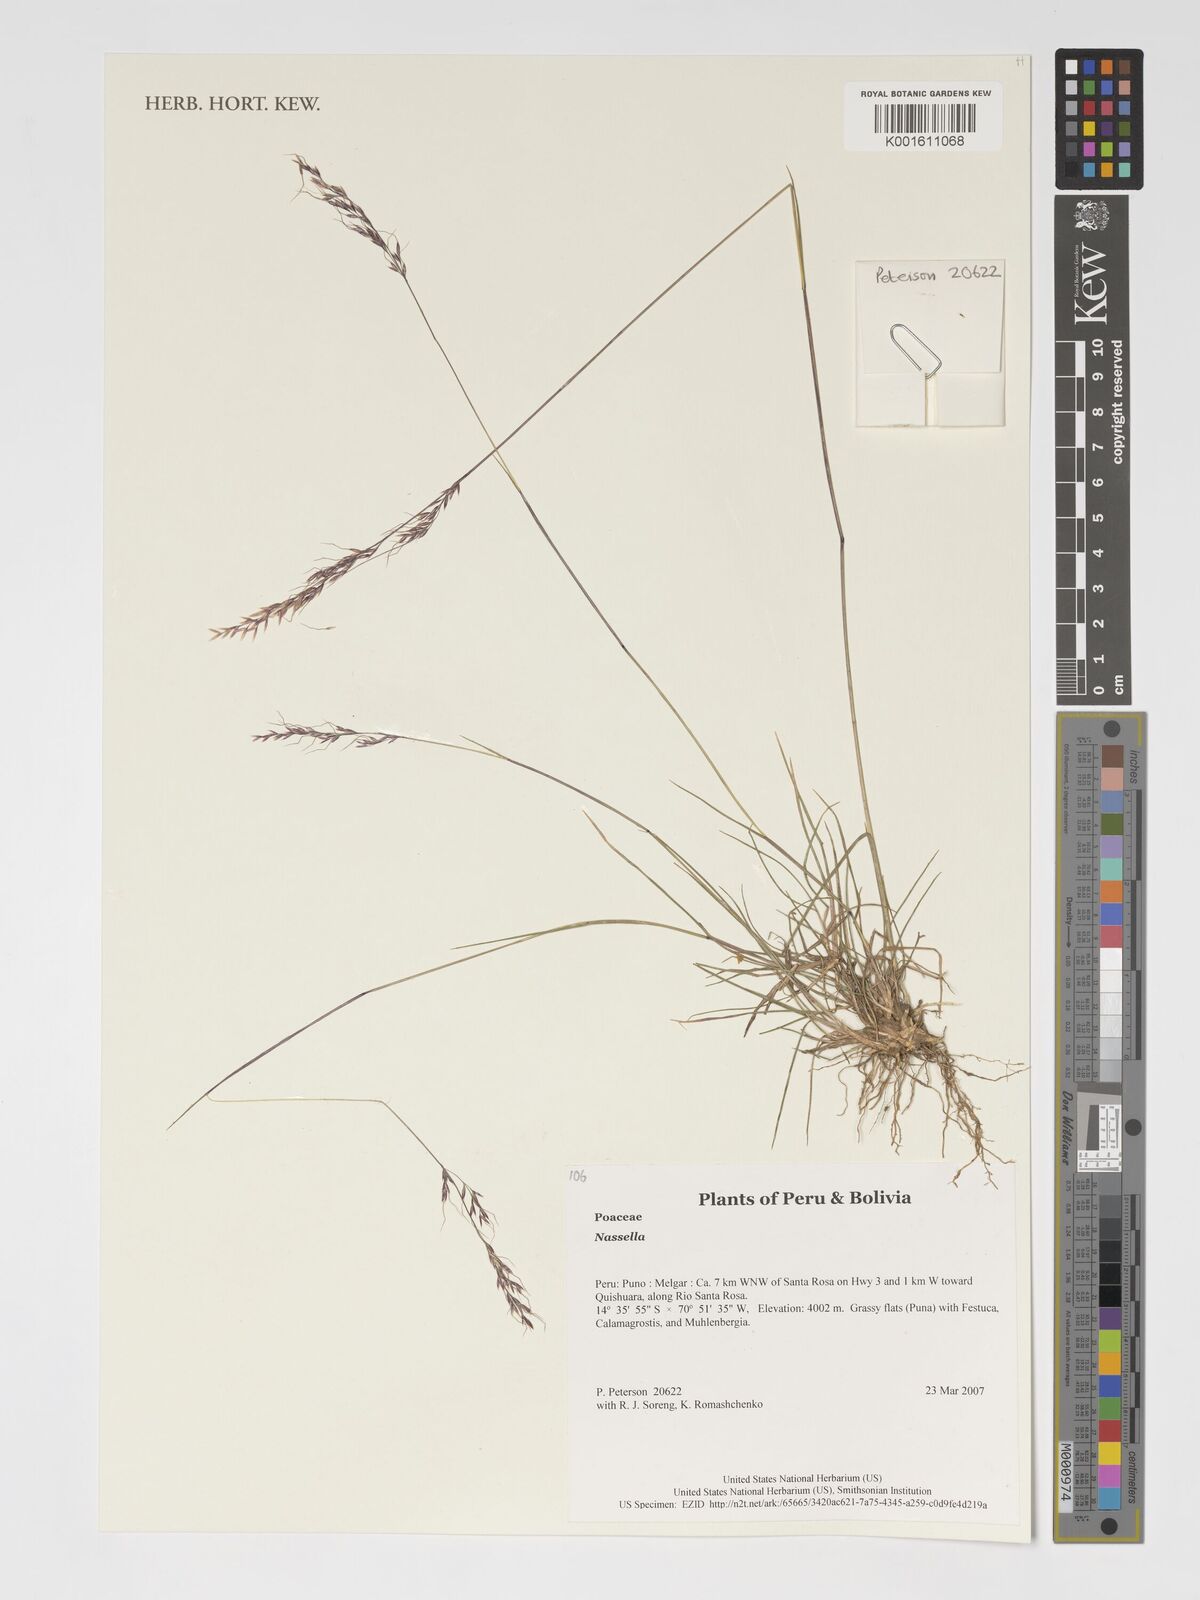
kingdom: Plantae
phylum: Tracheophyta
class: Liliopsida
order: Poales
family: Poaceae
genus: Nassella
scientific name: Nassella
